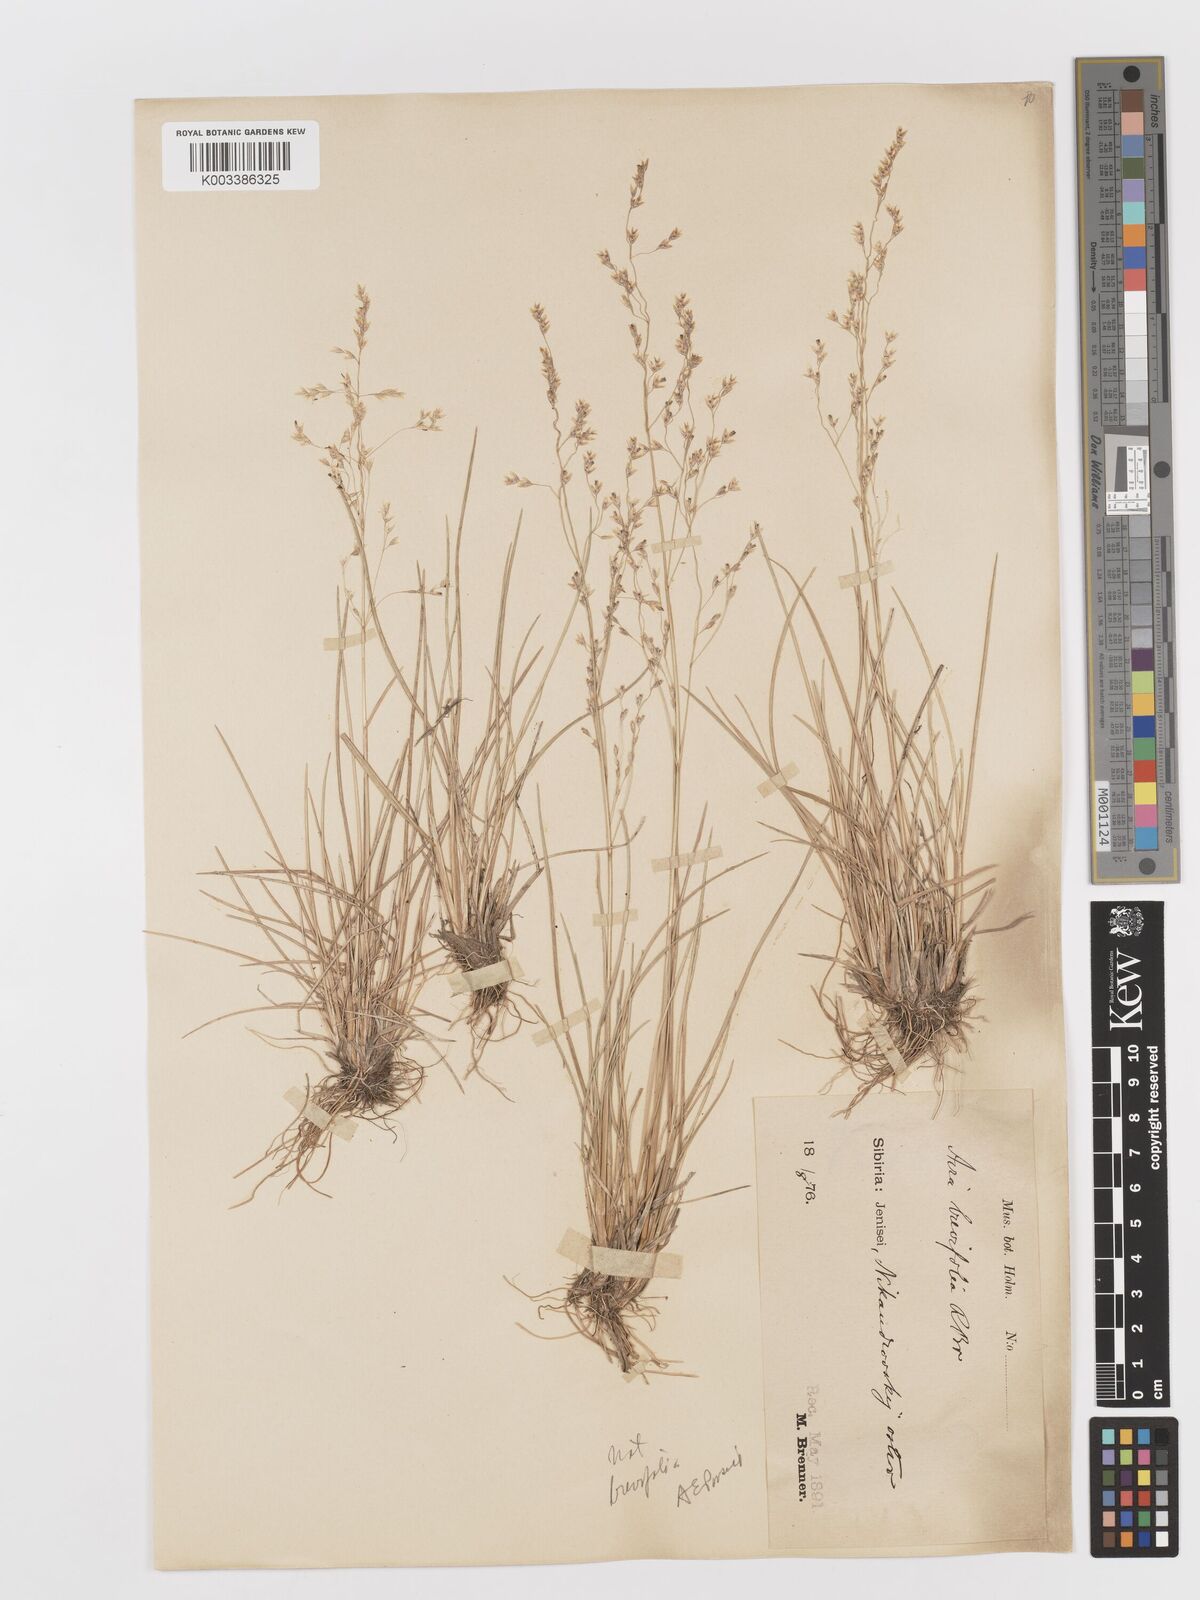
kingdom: Plantae
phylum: Tracheophyta
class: Liliopsida
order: Poales
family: Poaceae
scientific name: Poaceae
